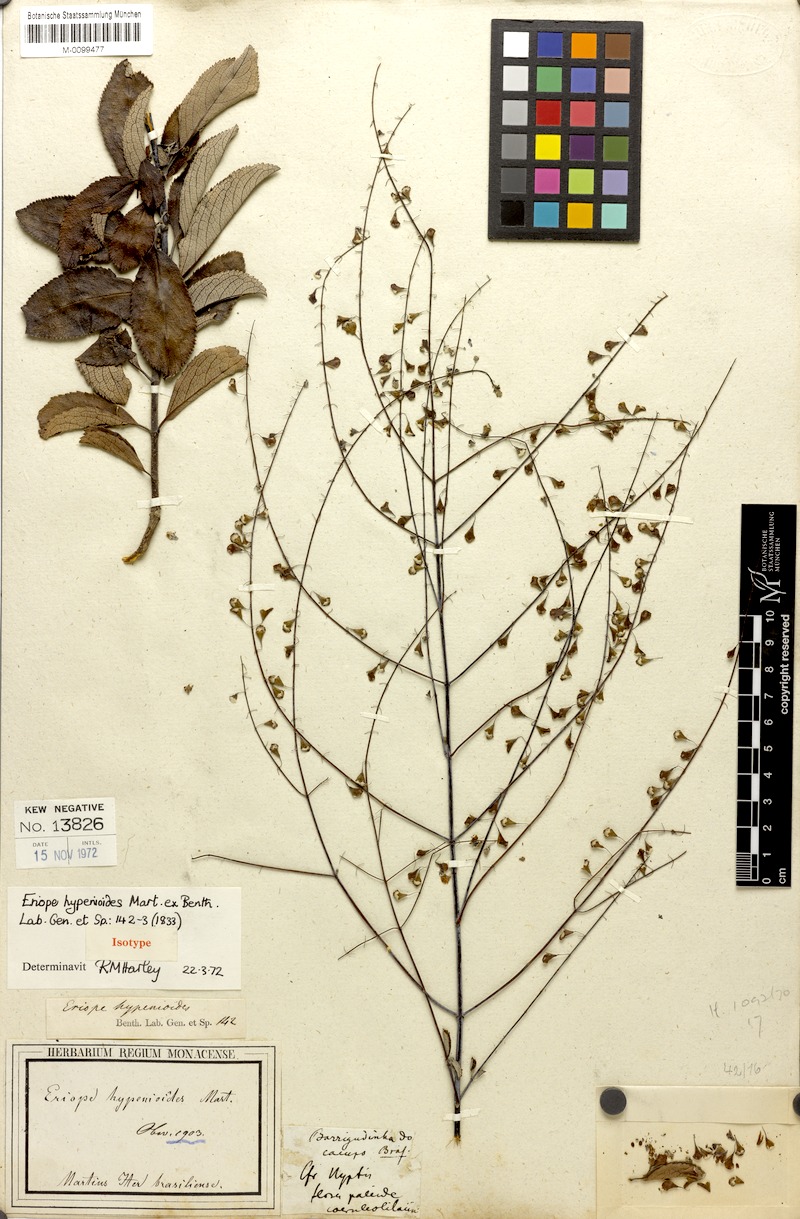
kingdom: Plantae
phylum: Tracheophyta
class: Magnoliopsida
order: Lamiales
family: Lamiaceae
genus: Eriope
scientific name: Eriope hypenioides
